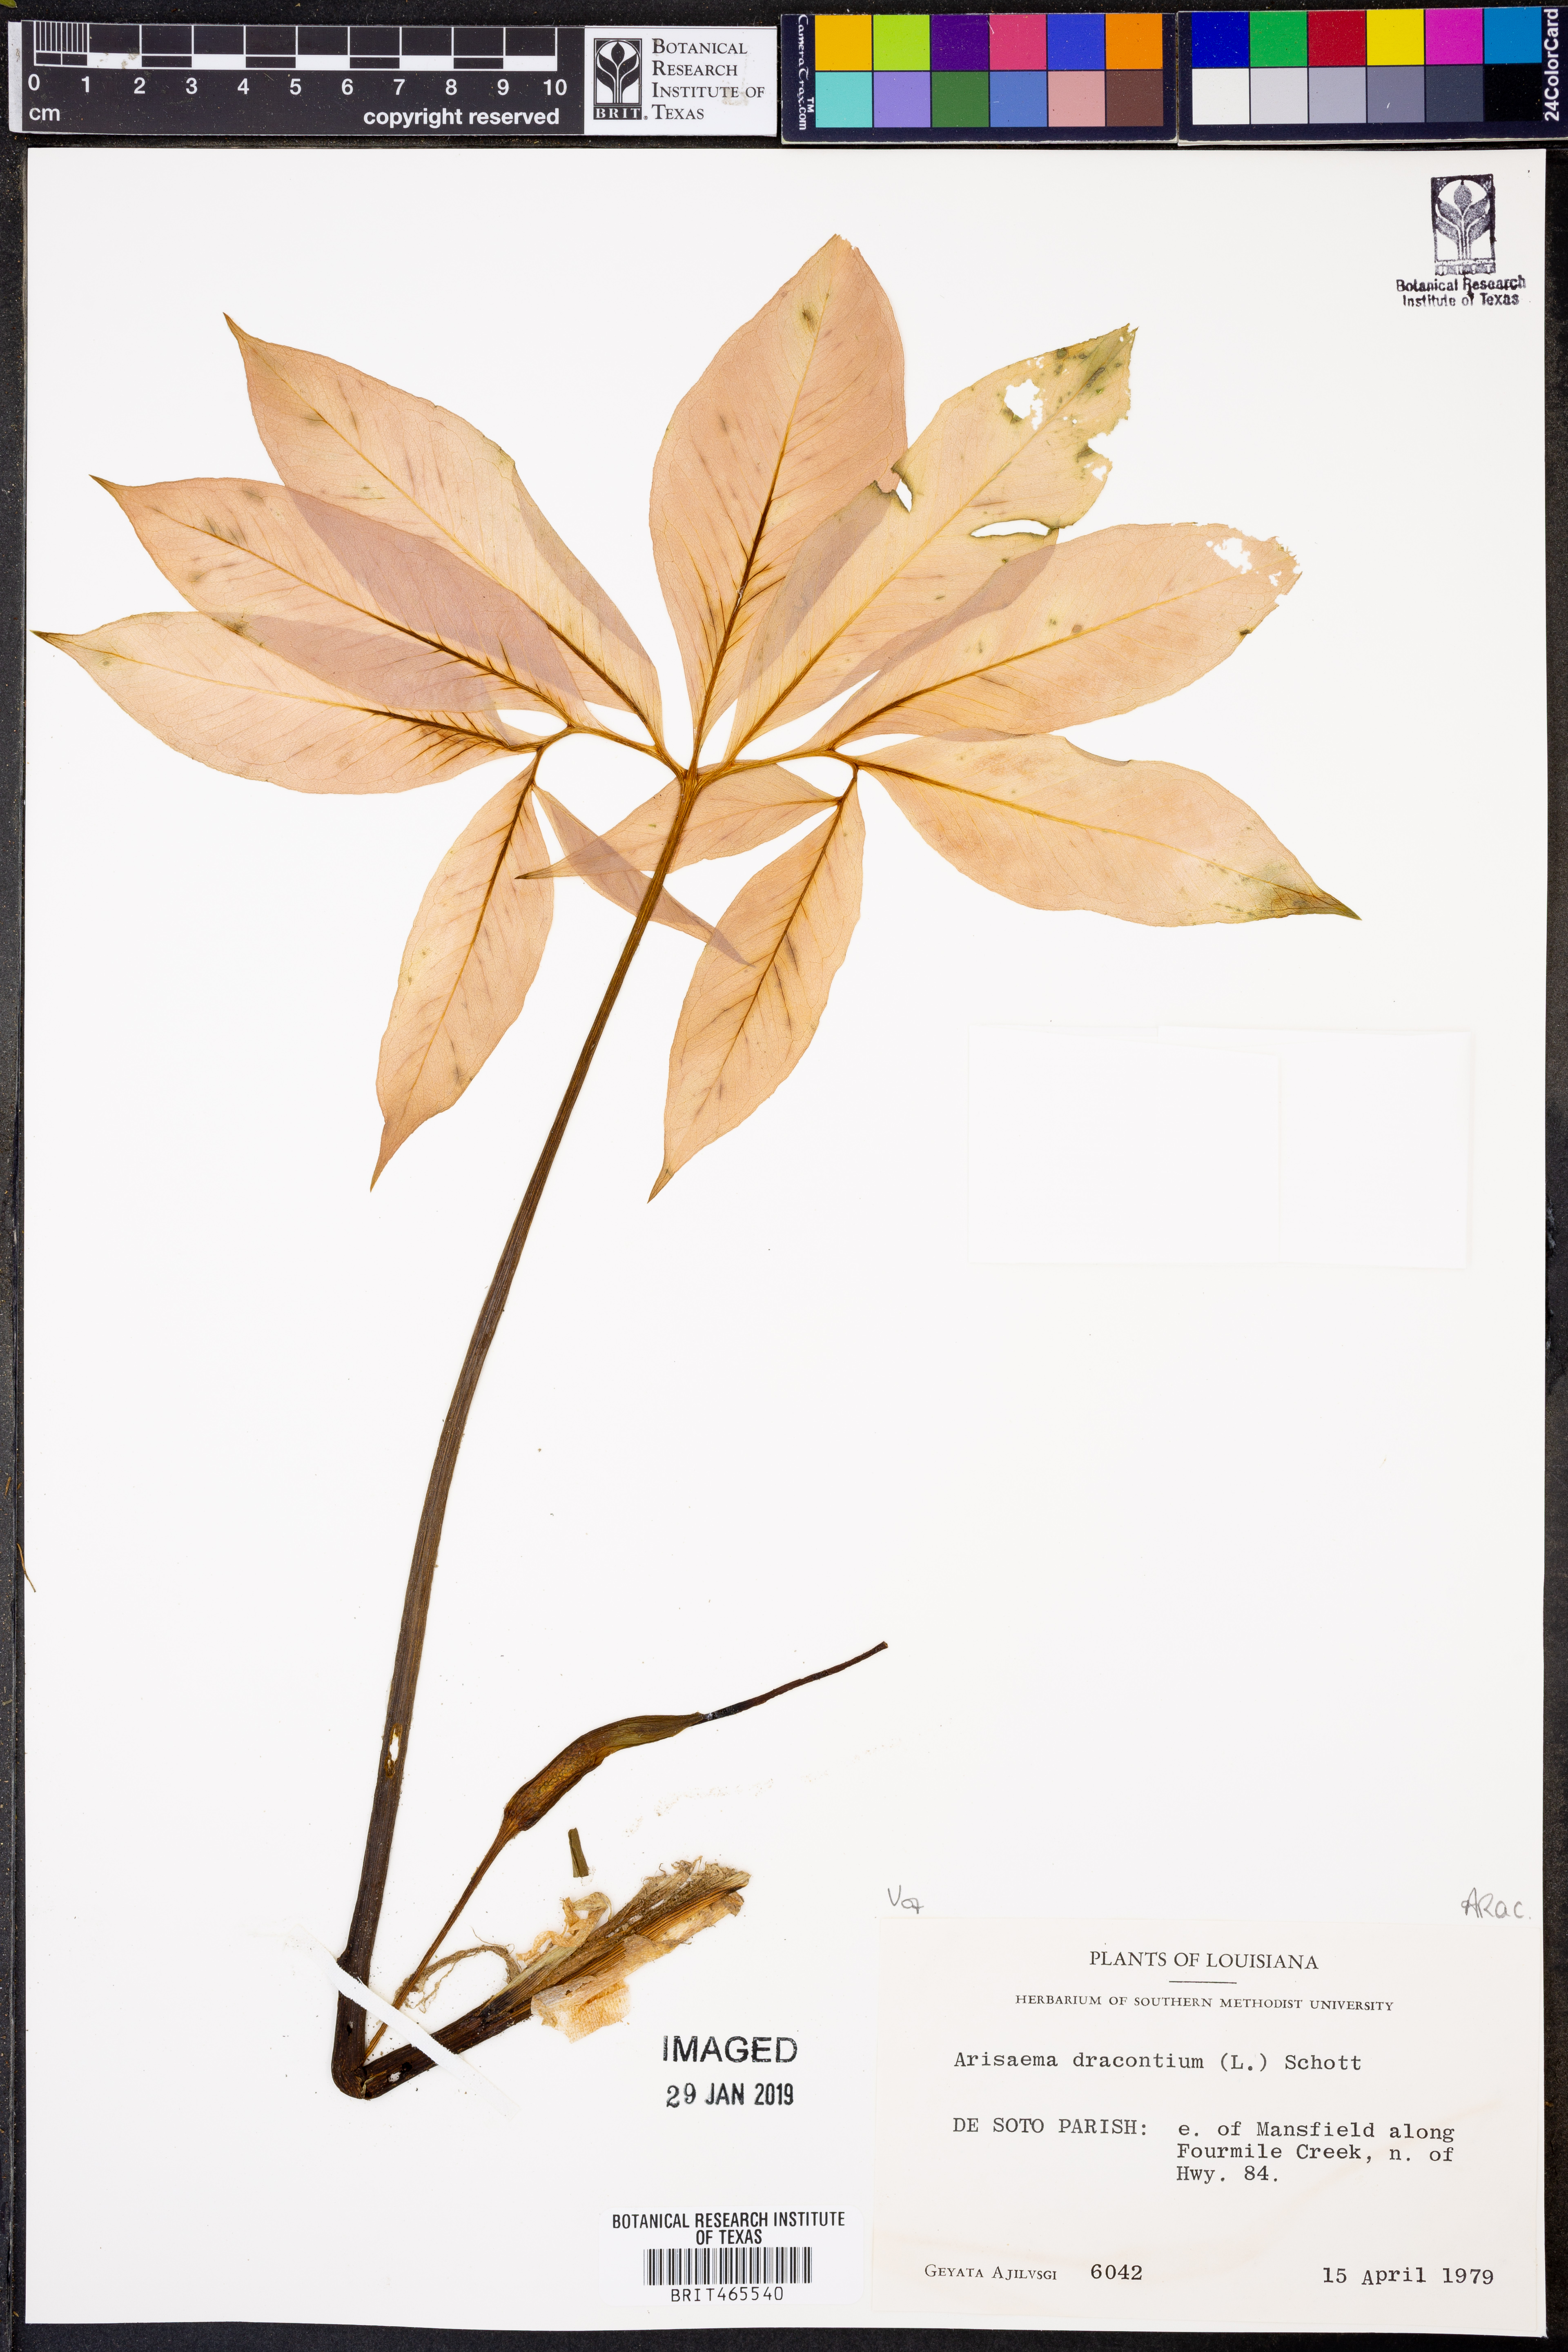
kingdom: Plantae
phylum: Tracheophyta
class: Liliopsida
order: Alismatales
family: Araceae
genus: Arisaema
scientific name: Arisaema dracontium
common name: Dragon-arum
